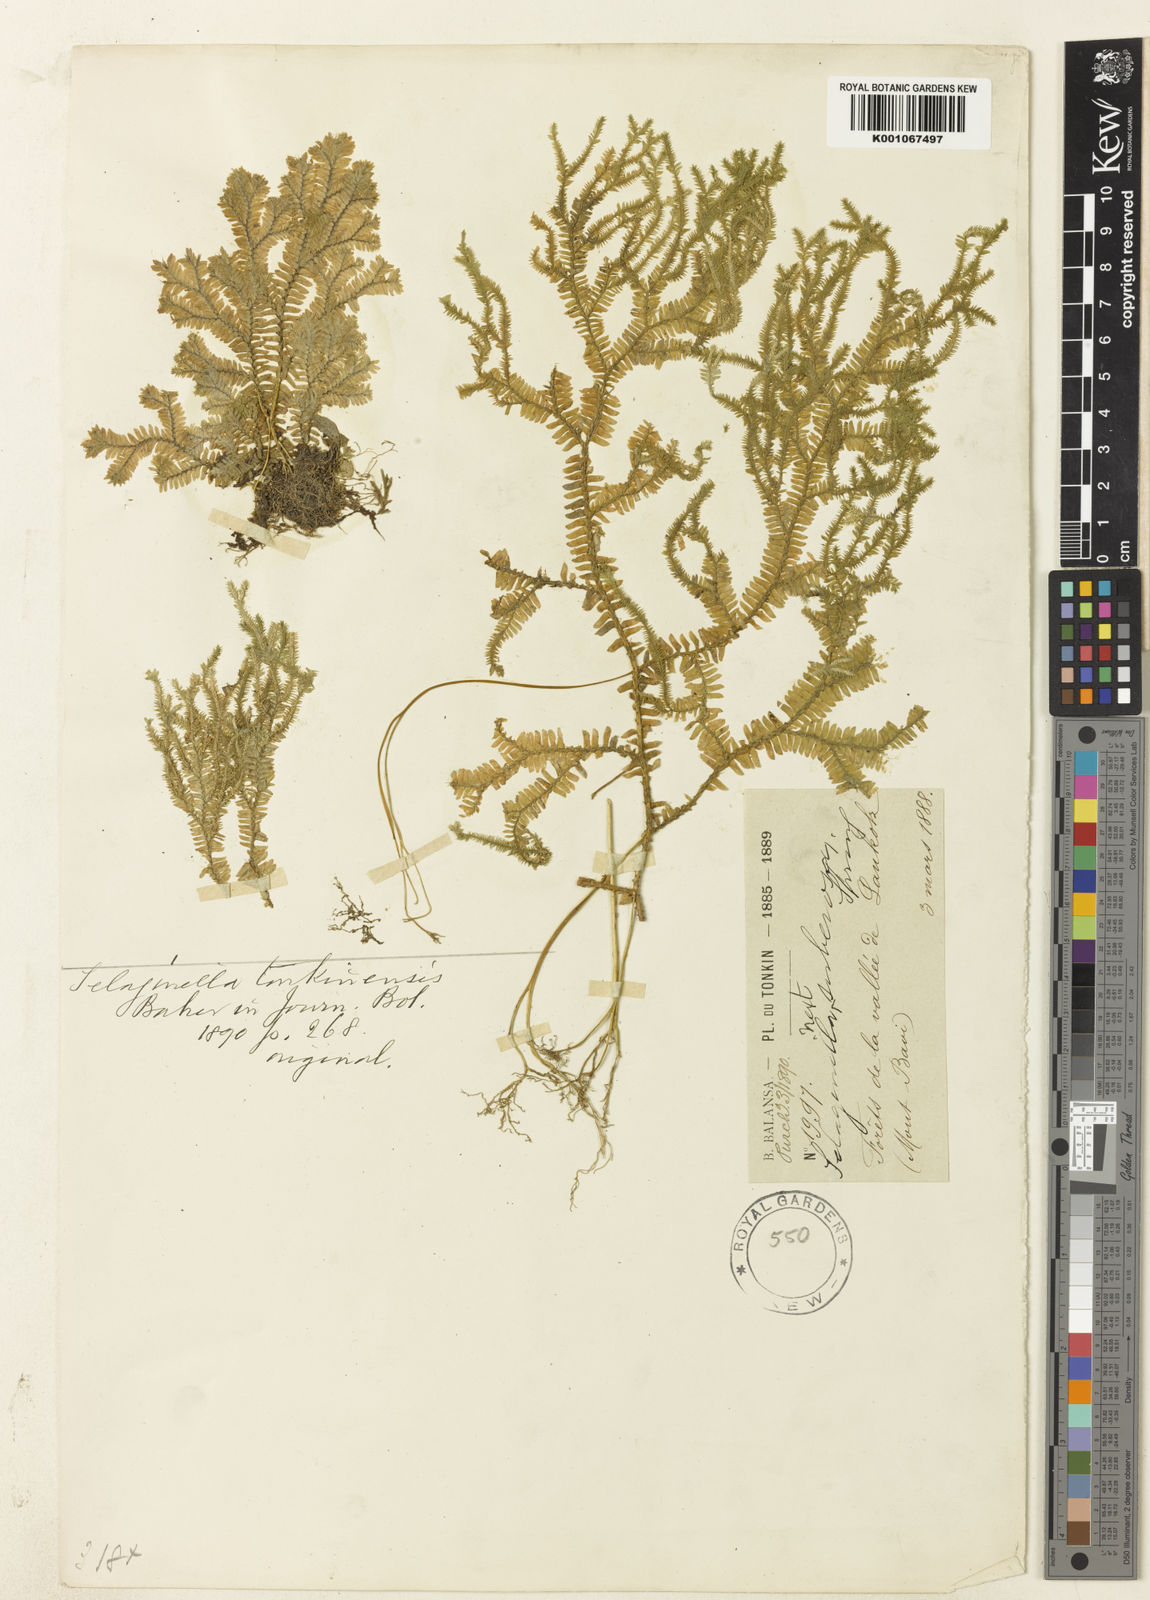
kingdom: Plantae
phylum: Tracheophyta
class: Lycopodiopsida
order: Selaginellales
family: Selaginellaceae
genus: Selaginella
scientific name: Selaginella ornata
